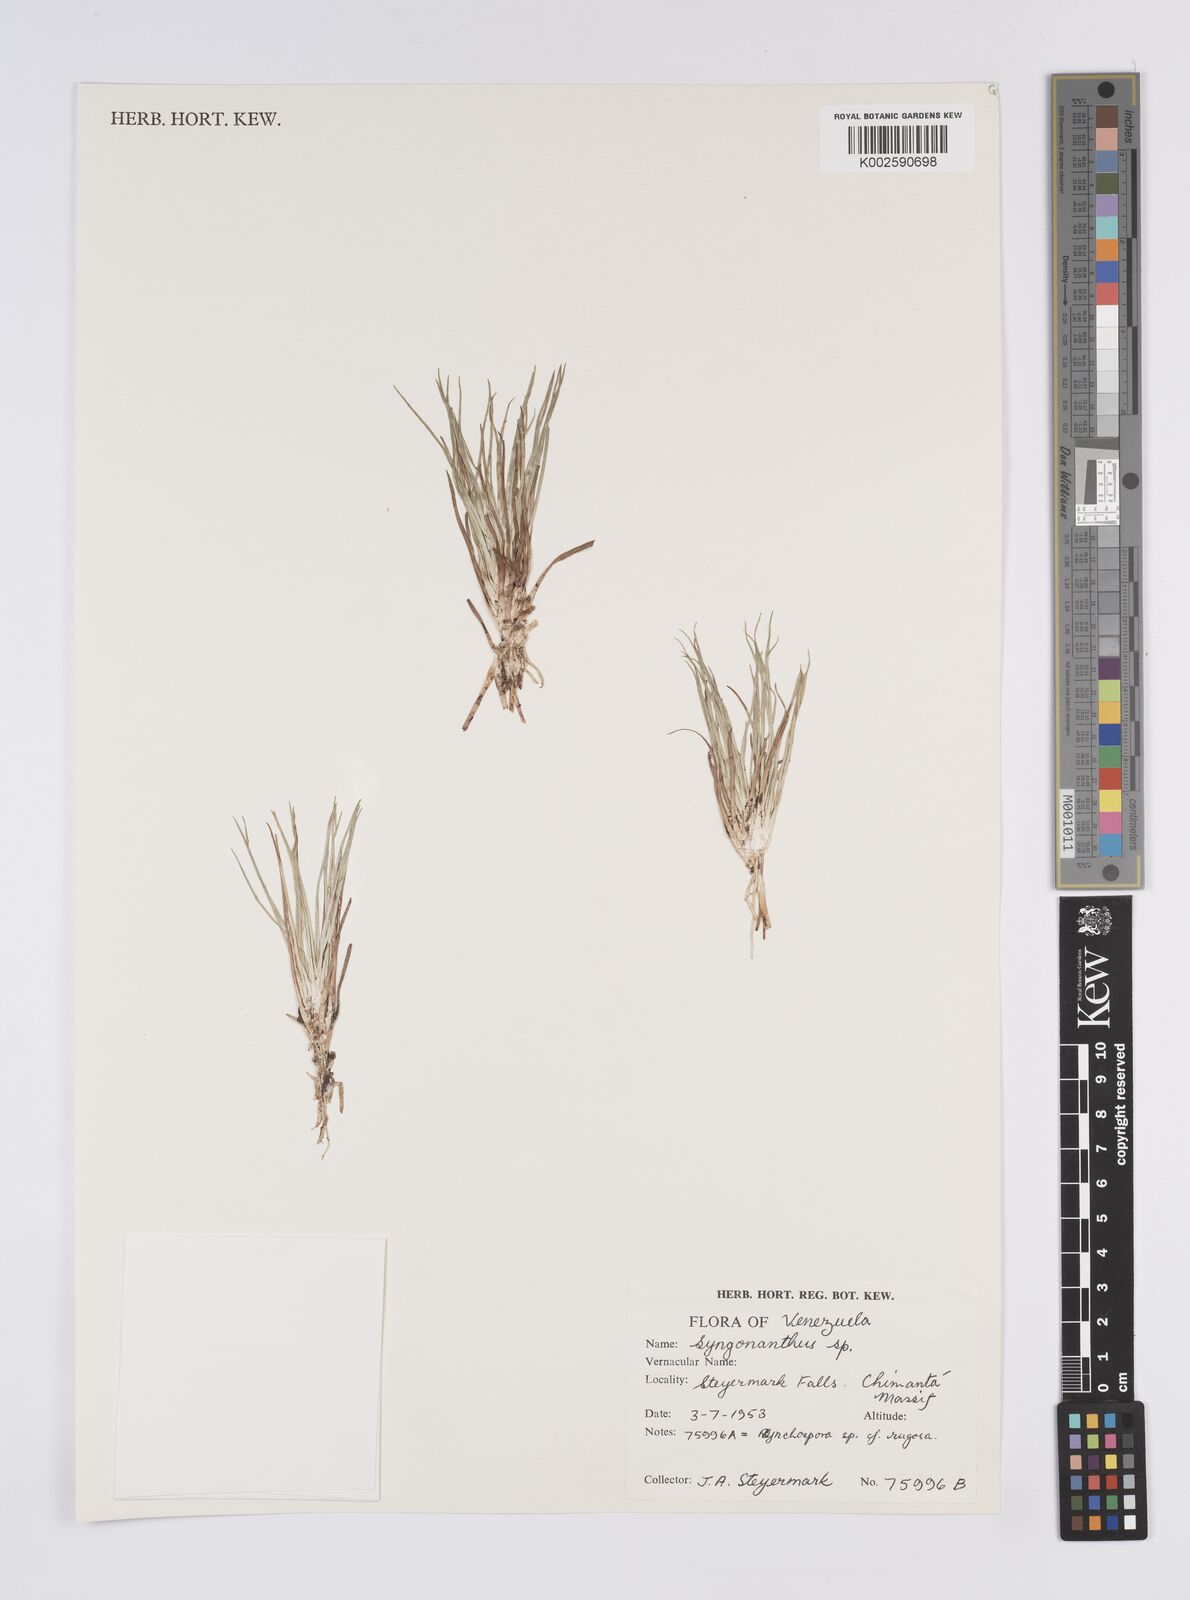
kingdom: Plantae
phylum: Tracheophyta
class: Liliopsida
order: Poales
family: Eriocaulaceae
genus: Syngonanthus
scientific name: Syngonanthus
